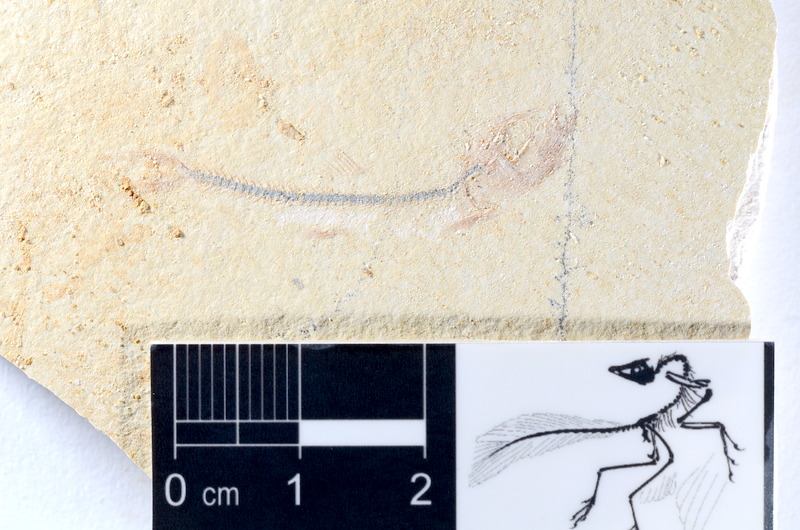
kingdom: Animalia
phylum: Chordata
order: Salmoniformes
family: Orthogonikleithridae
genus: Orthogonikleithrus
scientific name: Orthogonikleithrus hoelli
